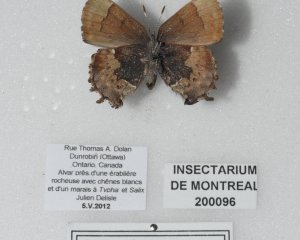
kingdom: Animalia
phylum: Arthropoda
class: Insecta
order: Lepidoptera
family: Lycaenidae
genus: Incisalia
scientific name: Incisalia henrici
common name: Henry's Elfin
